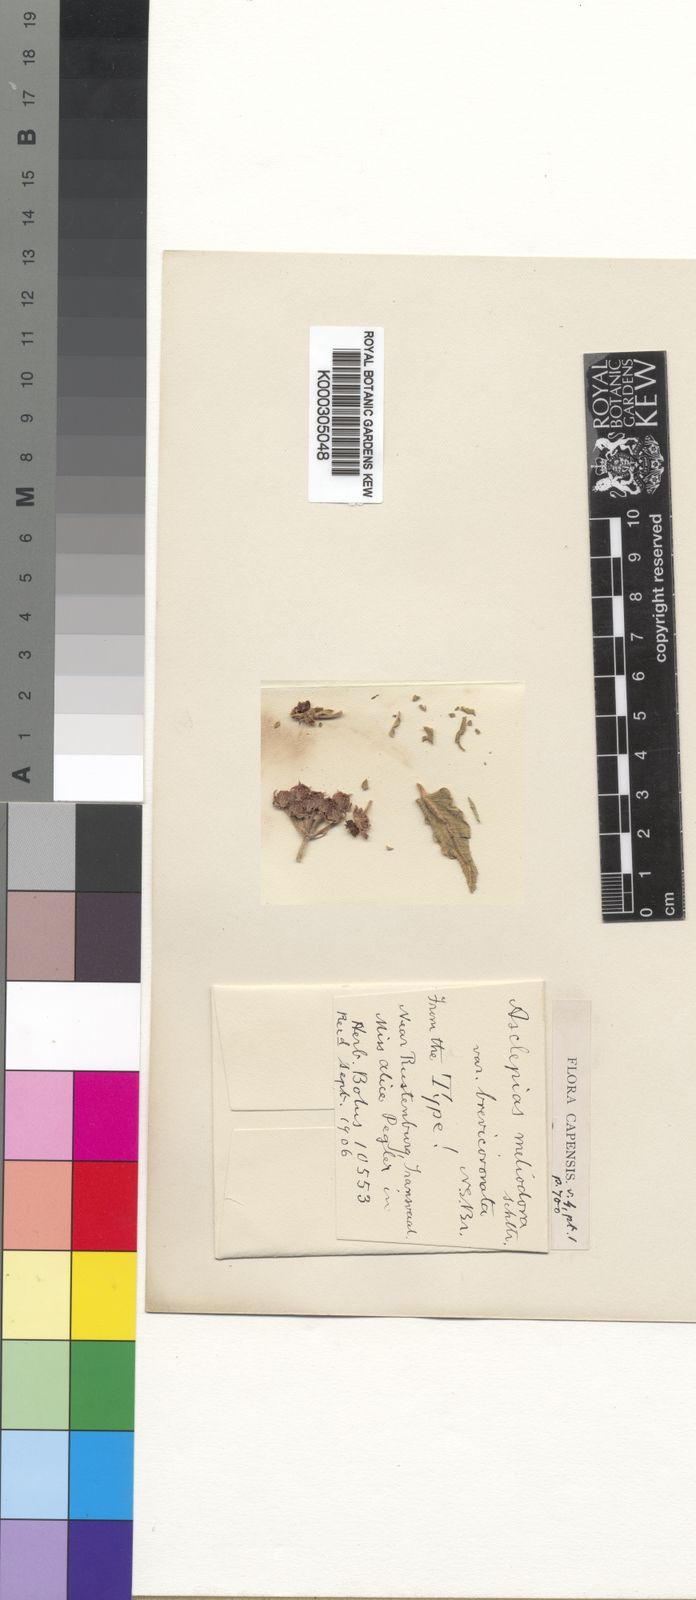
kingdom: Plantae
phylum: Tracheophyta
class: Magnoliopsida
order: Gentianales
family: Apocynaceae
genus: Asclepias
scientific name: Asclepias meliodora
